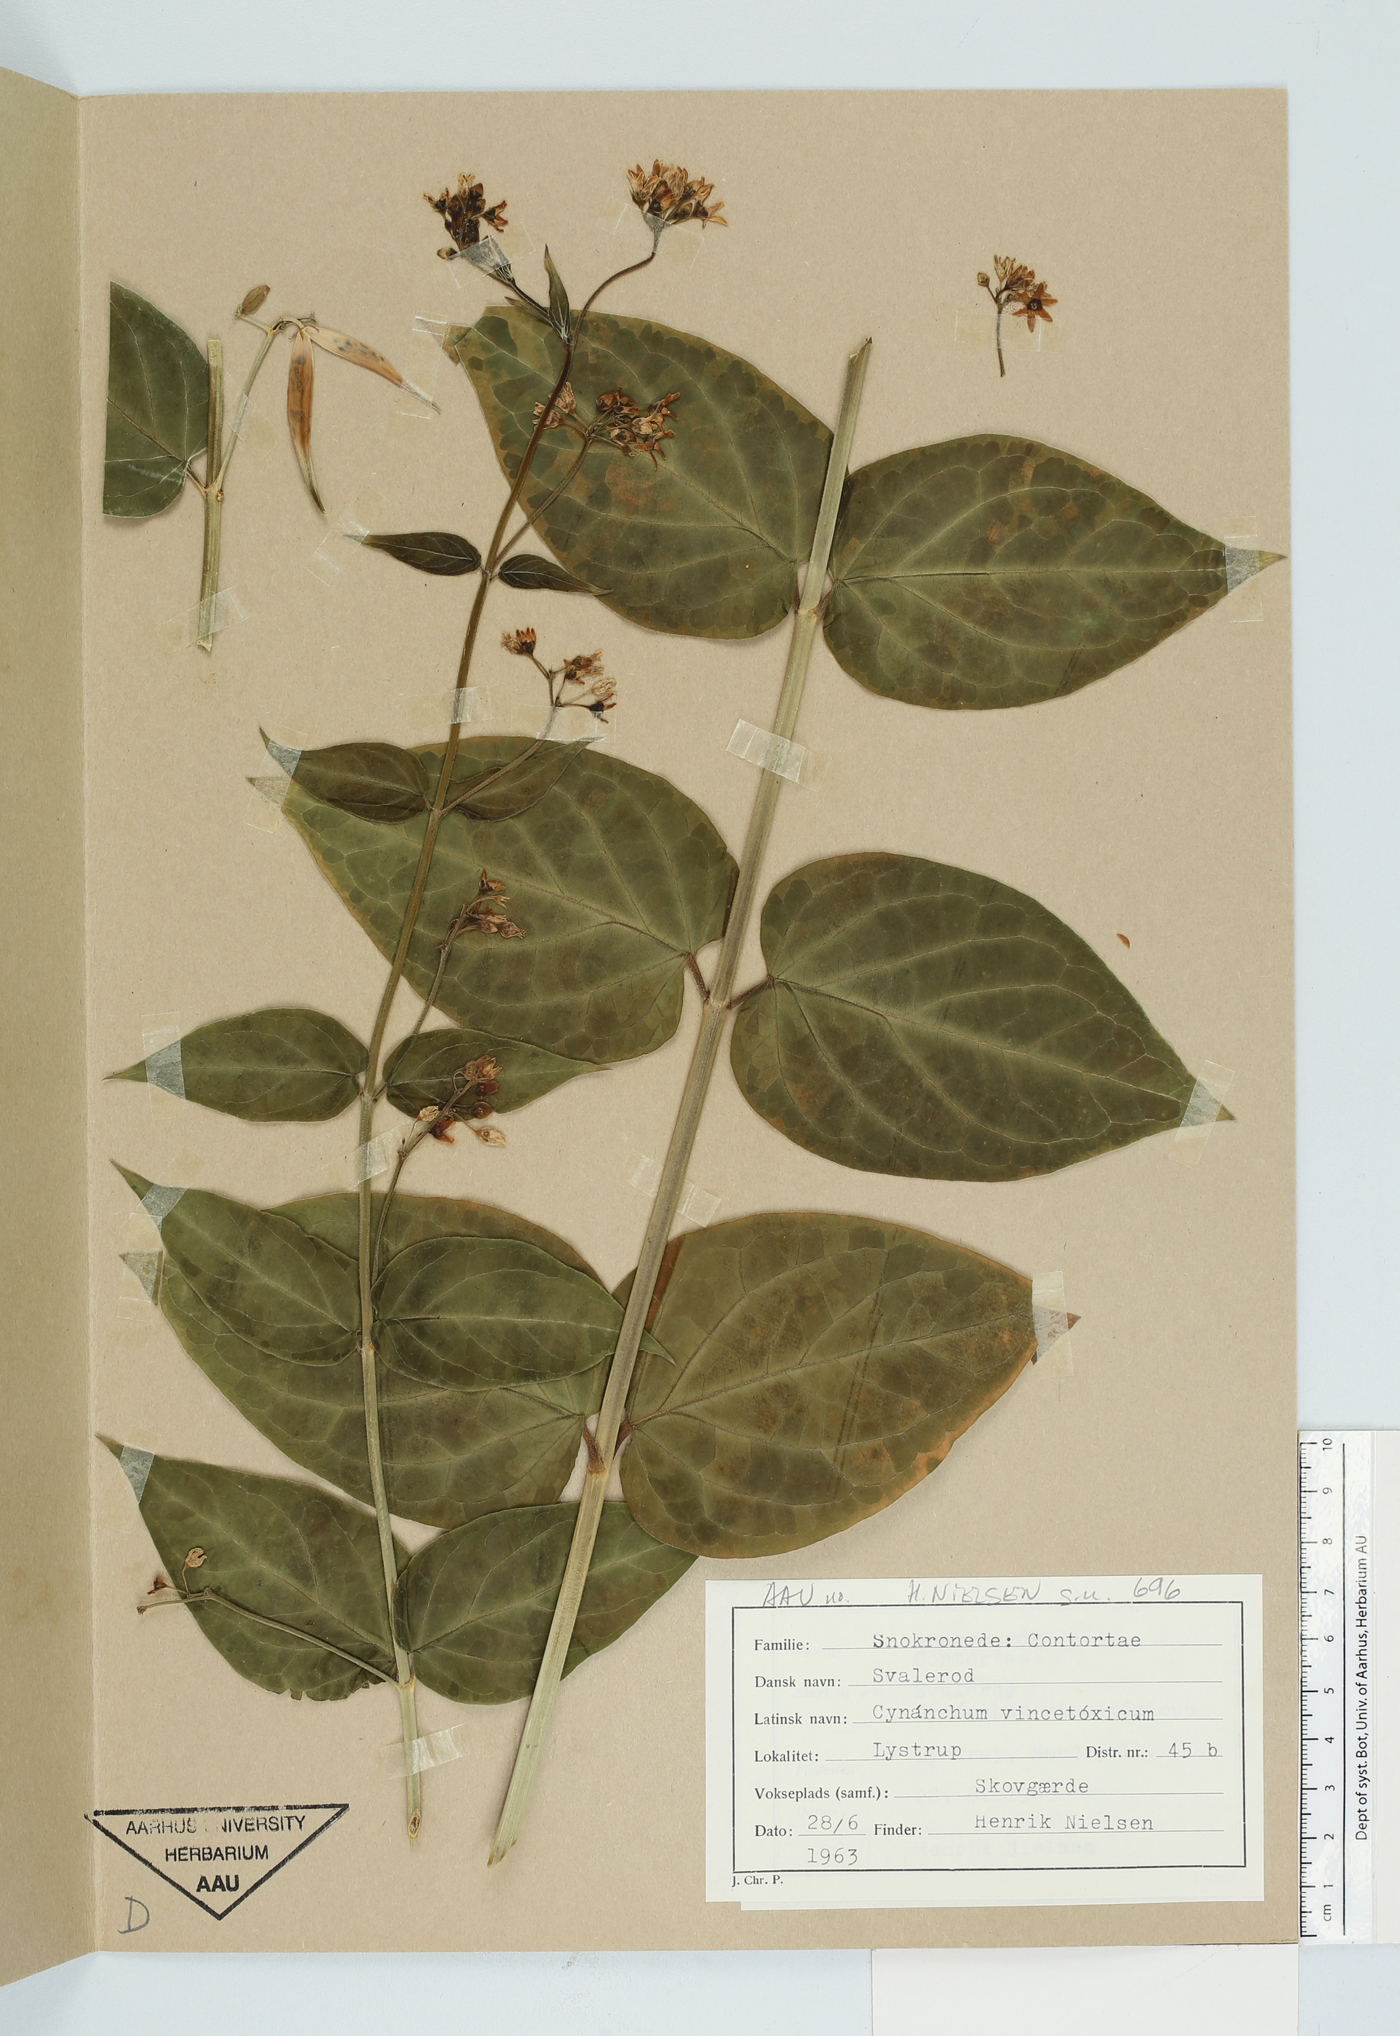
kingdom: Plantae
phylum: Tracheophyta
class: Magnoliopsida
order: Gentianales
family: Apocynaceae
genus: Vincetoxicum
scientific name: Vincetoxicum hirundinaria
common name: White swallowwort
